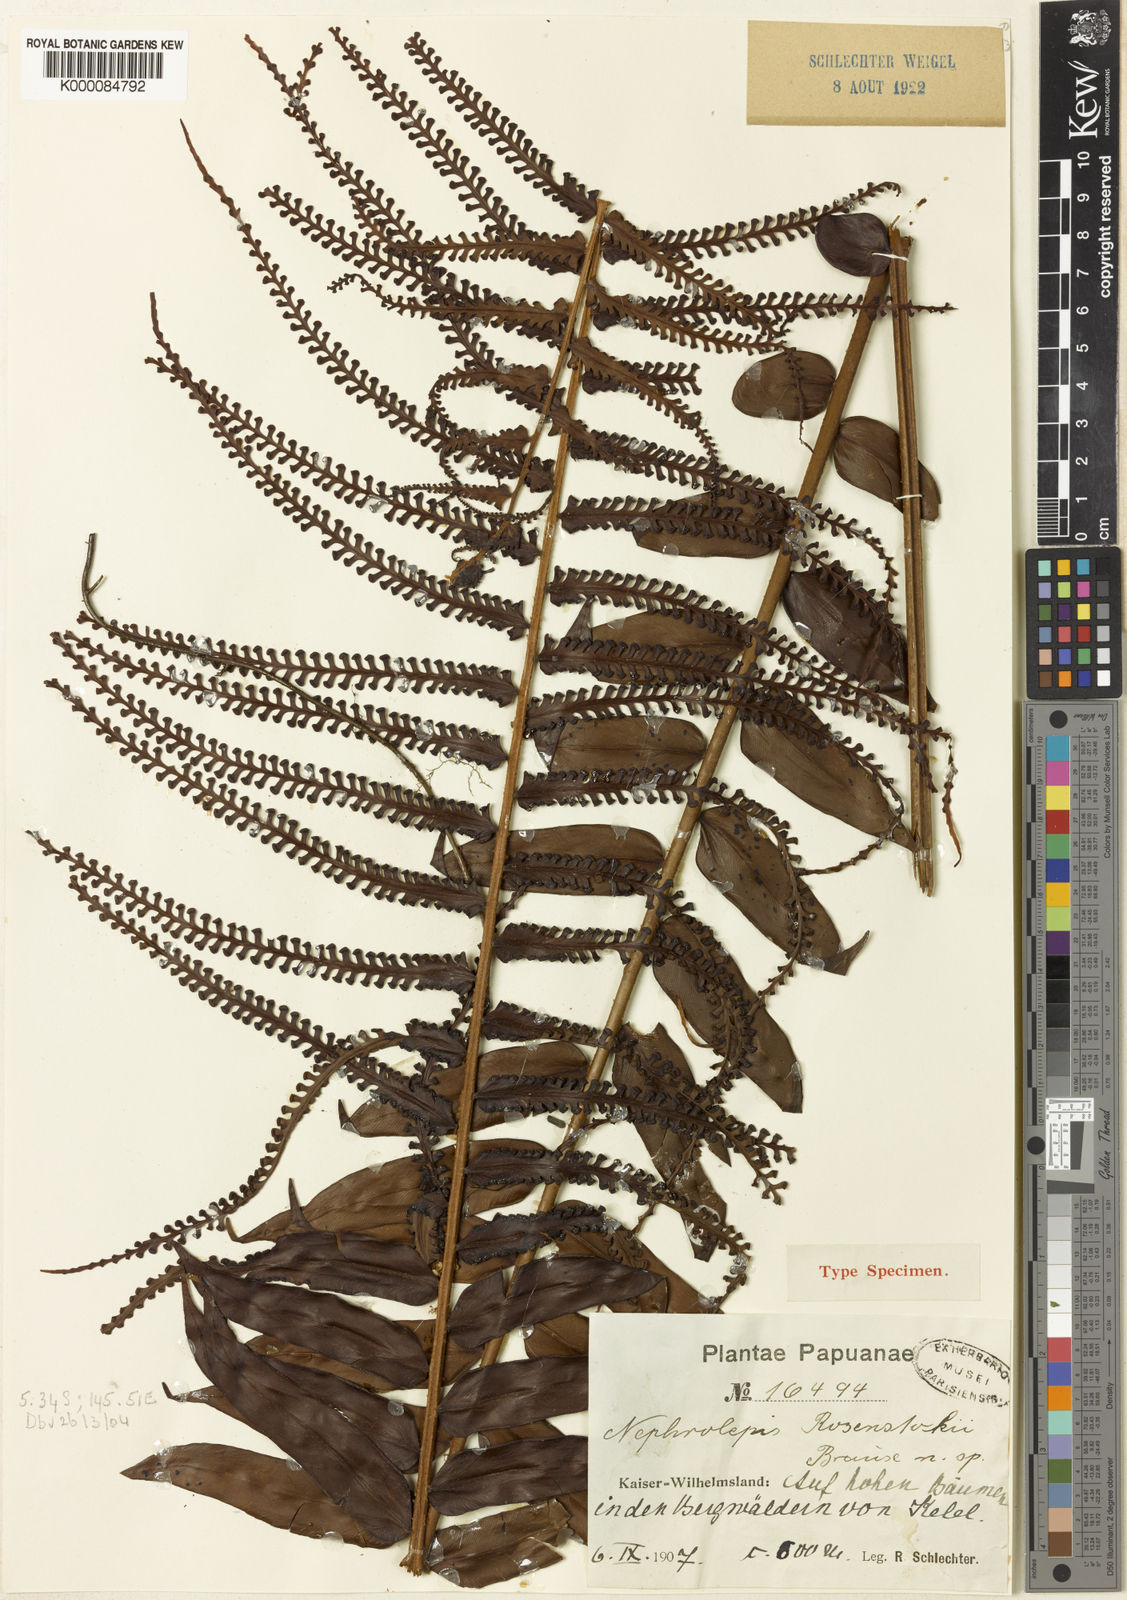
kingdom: Plantae
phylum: Tracheophyta
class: Polypodiopsida
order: Polypodiales
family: Nephrolepidaceae
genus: Nephrolepis
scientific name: Nephrolepis dicksonioides
